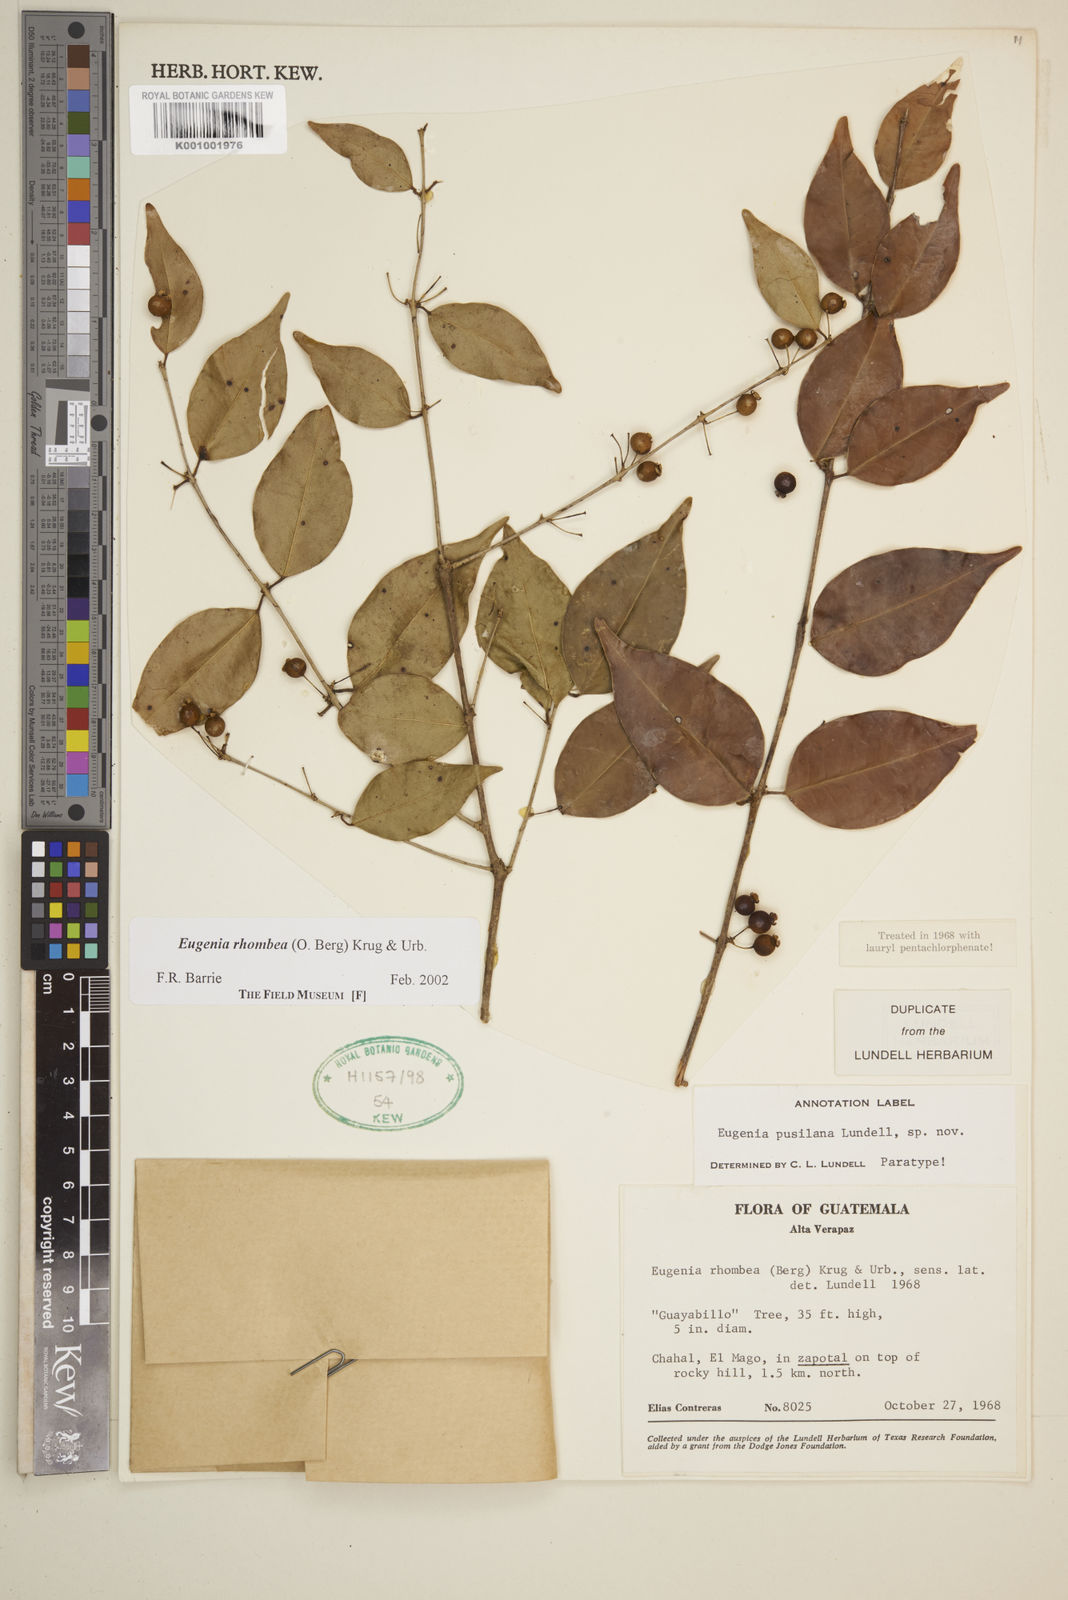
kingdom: Plantae
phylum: Tracheophyta
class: Magnoliopsida
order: Myrtales
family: Myrtaceae
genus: Eugenia
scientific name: Eugenia rhombea
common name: Pigeon berry
